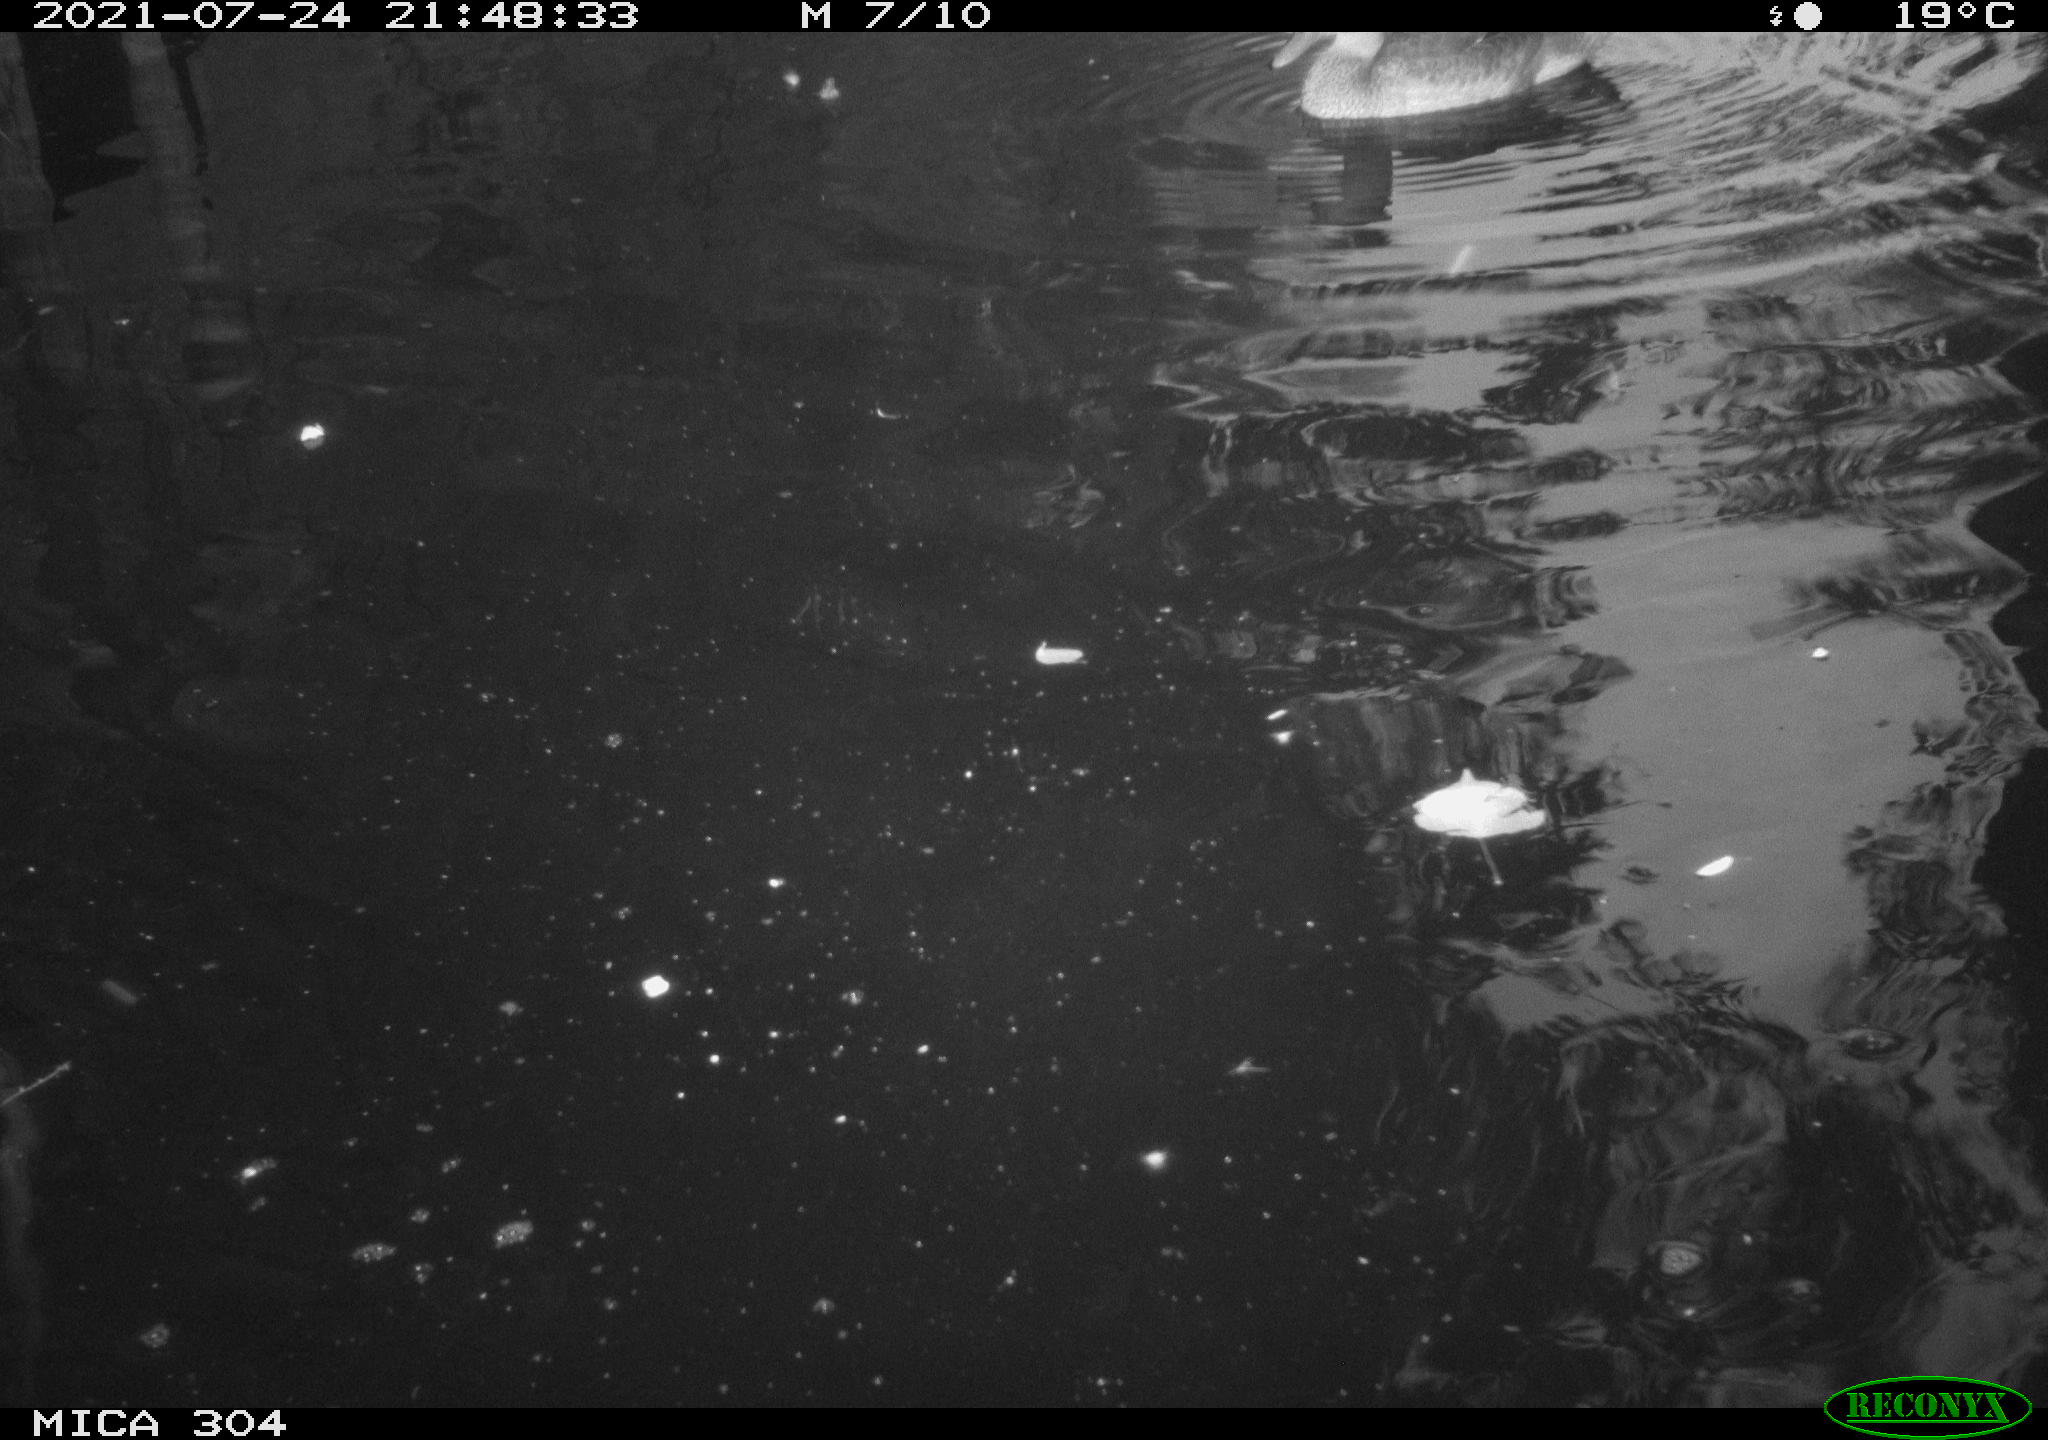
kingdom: Animalia
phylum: Chordata
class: Aves
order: Anseriformes
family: Anatidae
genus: Anas
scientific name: Anas platyrhynchos
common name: Mallard
